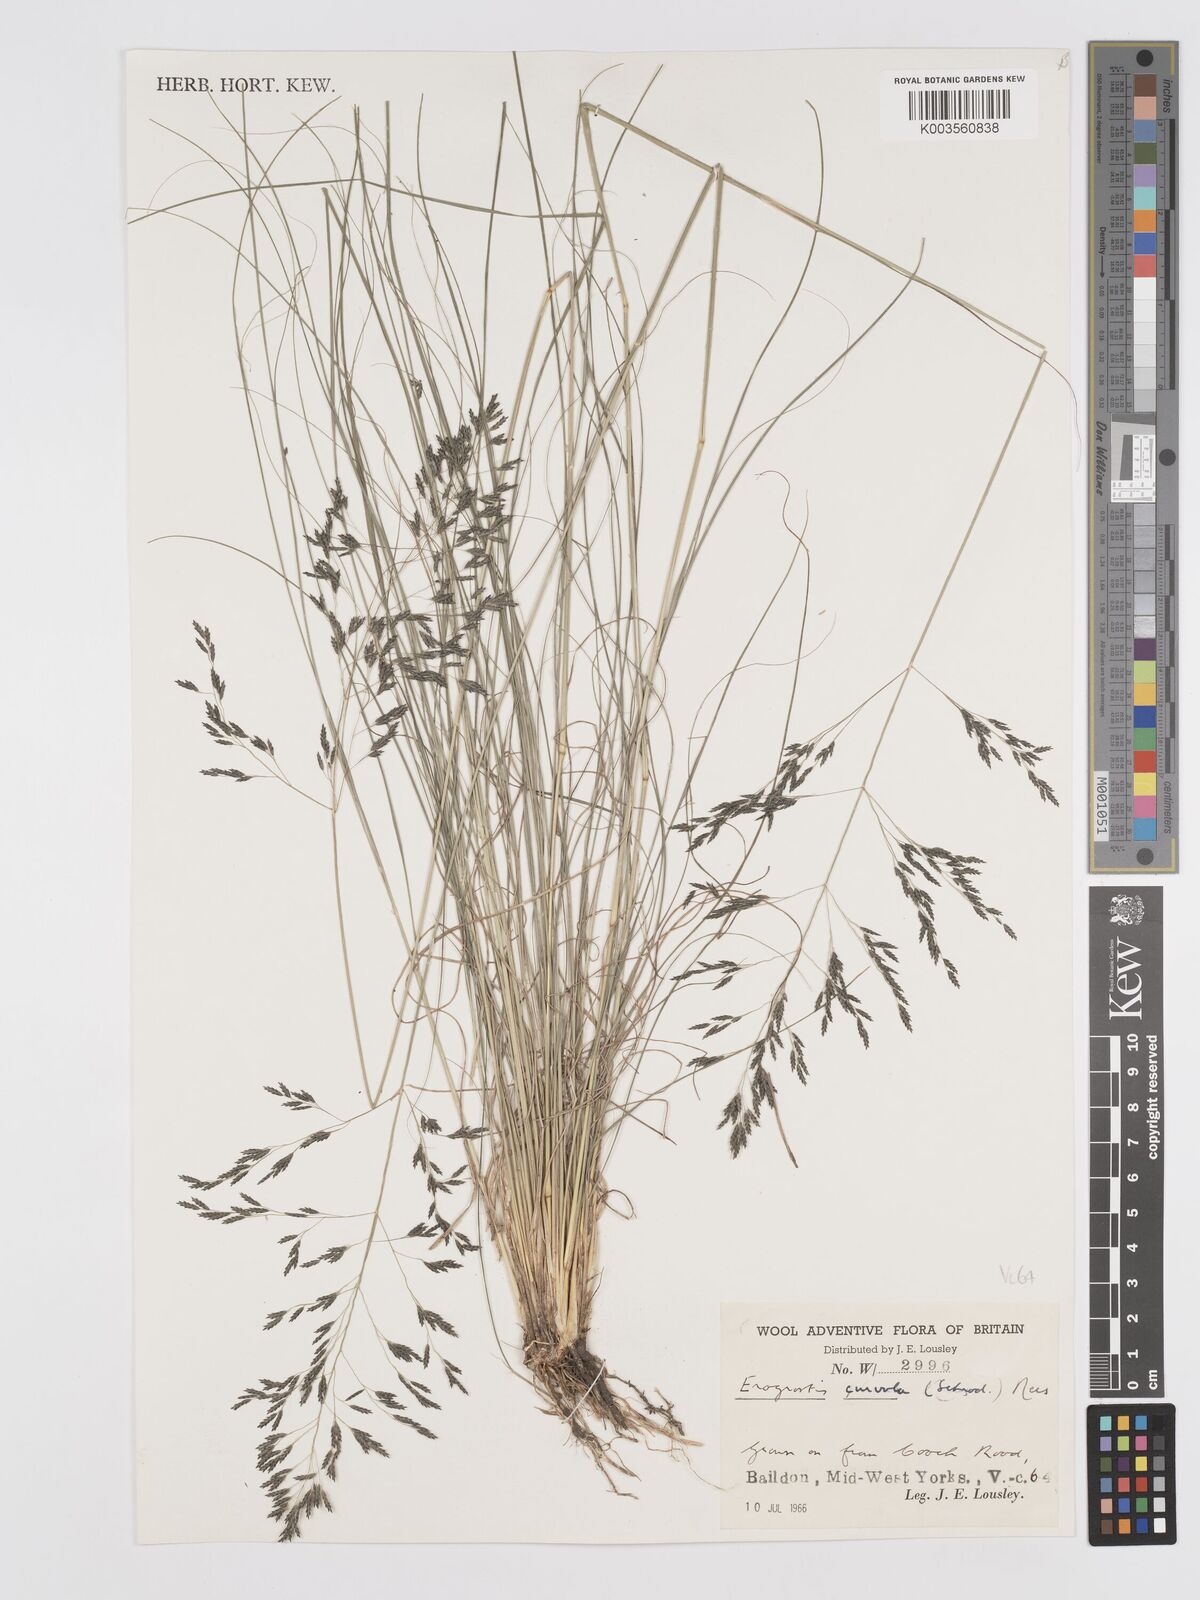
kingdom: Plantae
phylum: Tracheophyta
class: Liliopsida
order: Poales
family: Poaceae
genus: Eragrostis
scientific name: Eragrostis curvula
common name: African love-grass
